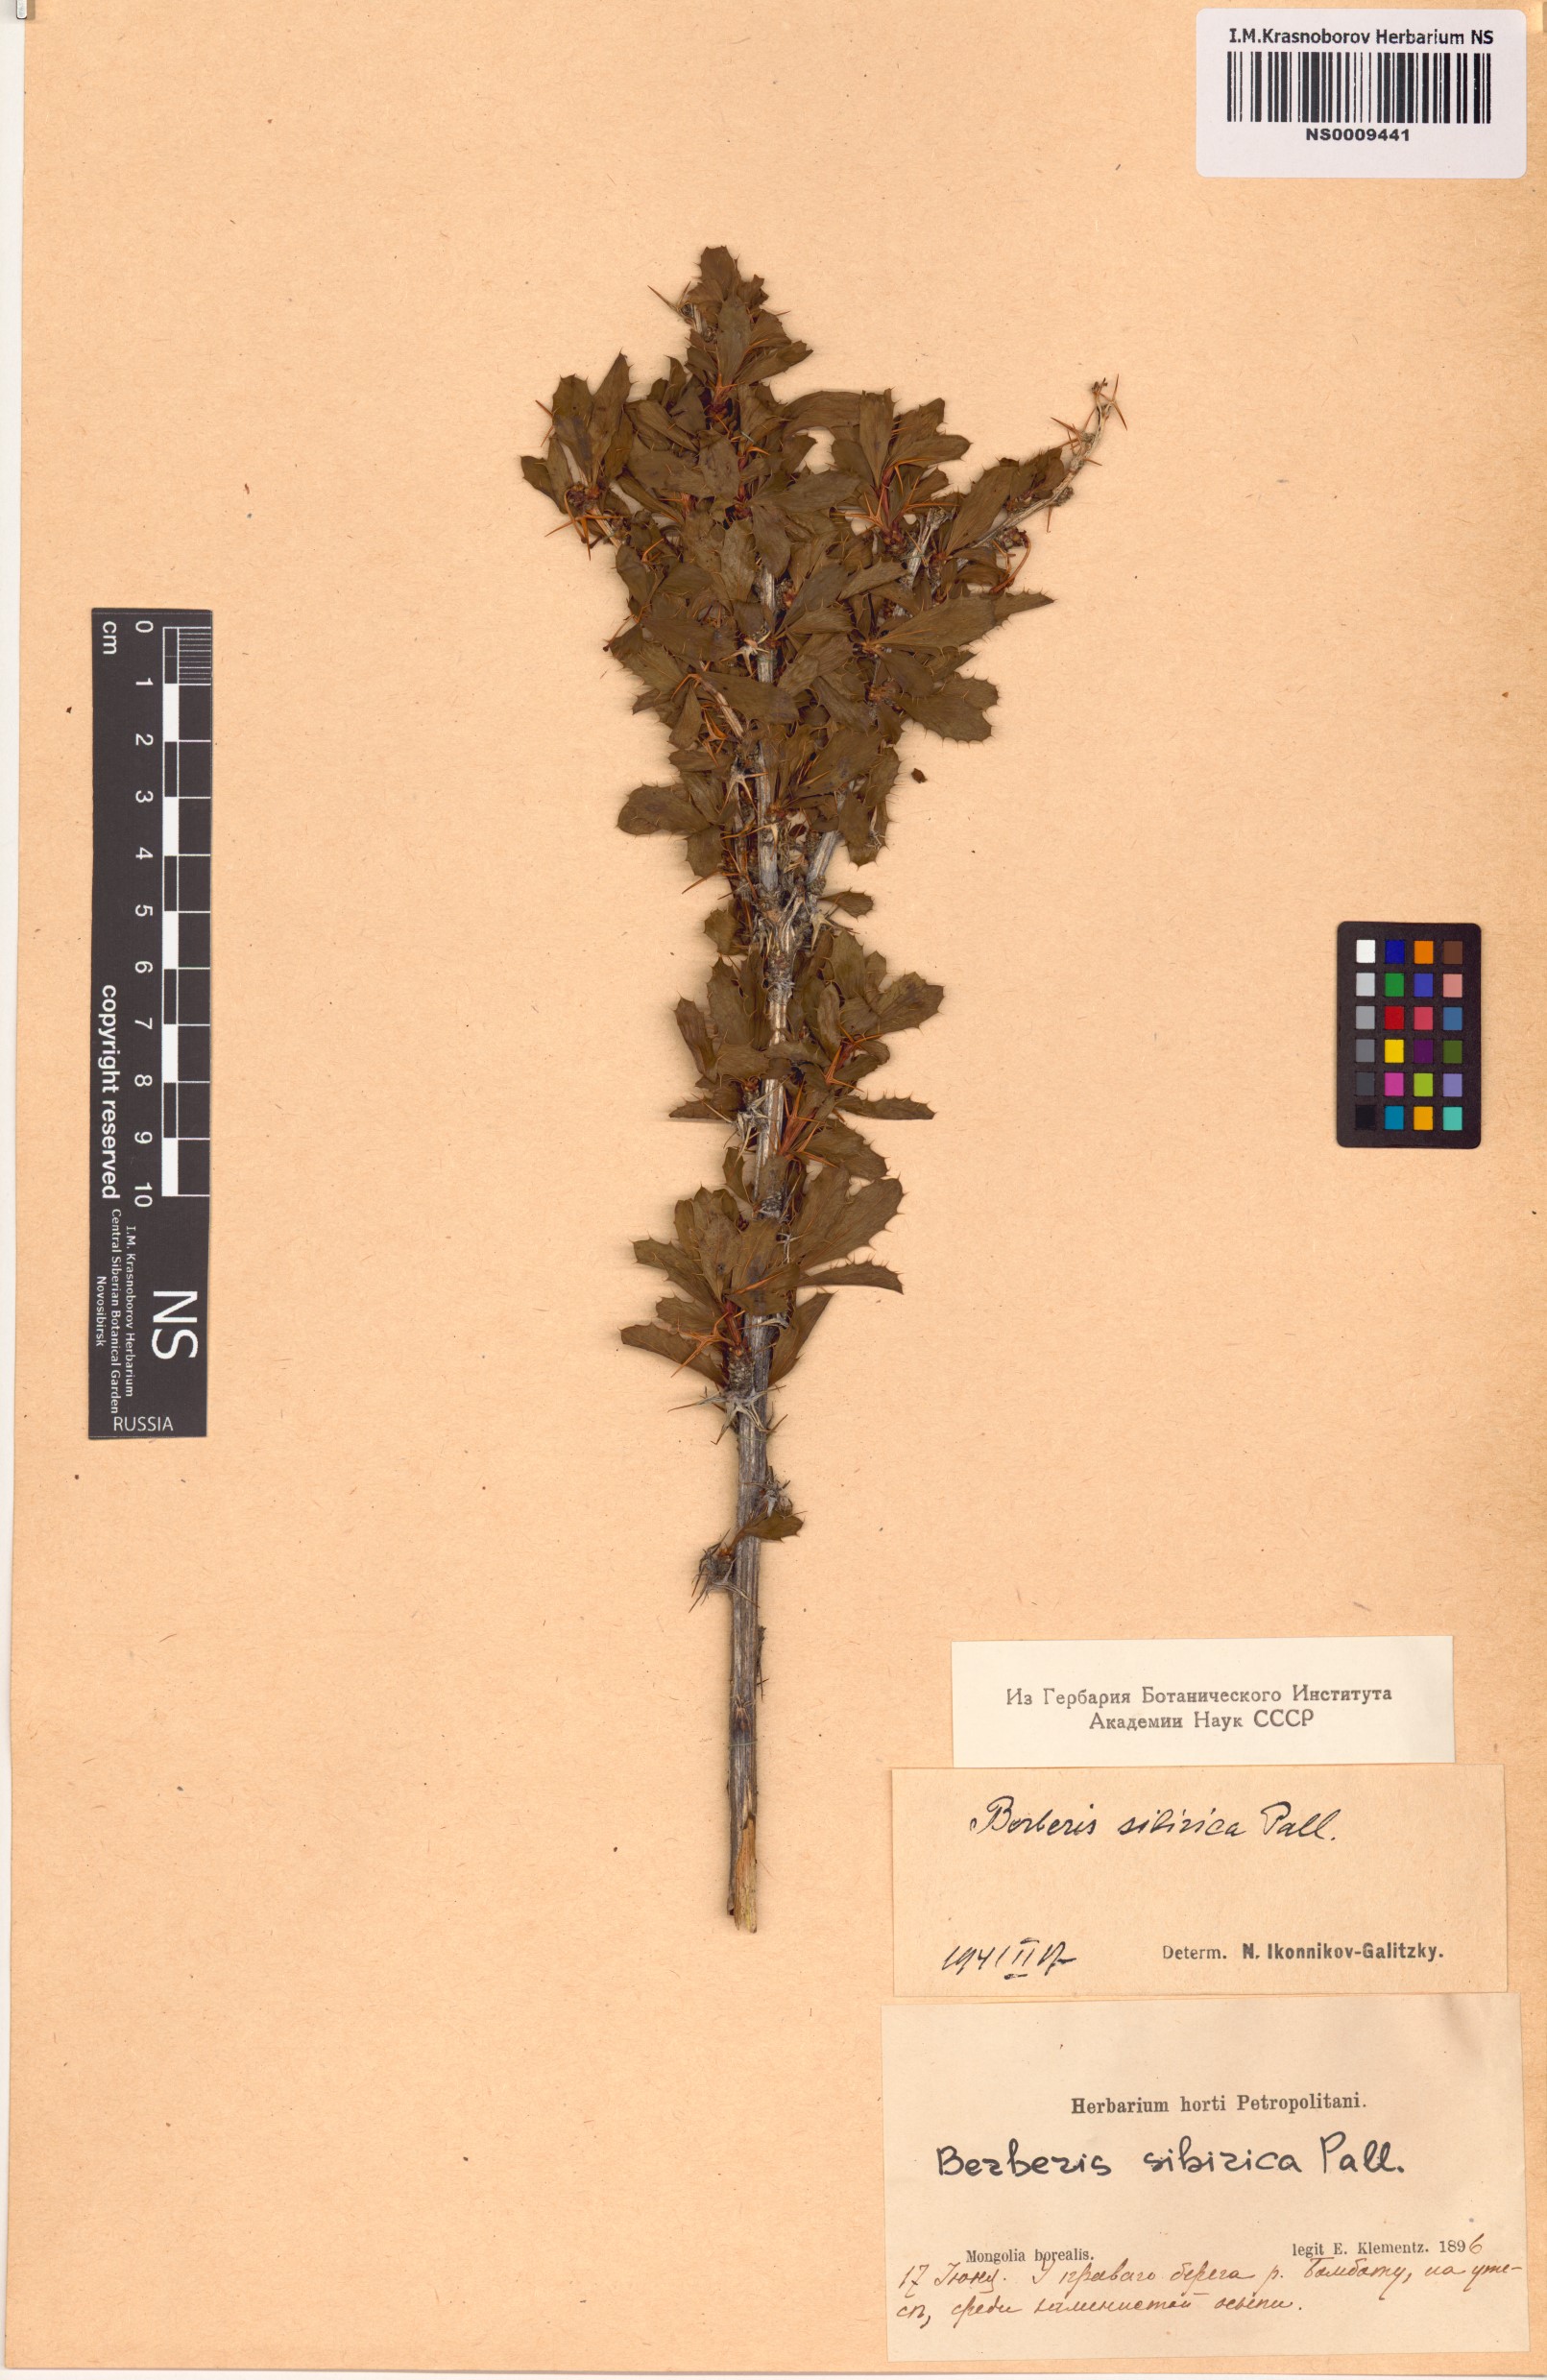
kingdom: Plantae
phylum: Tracheophyta
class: Magnoliopsida
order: Ranunculales
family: Berberidaceae
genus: Berberis
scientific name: Berberis sibirica
